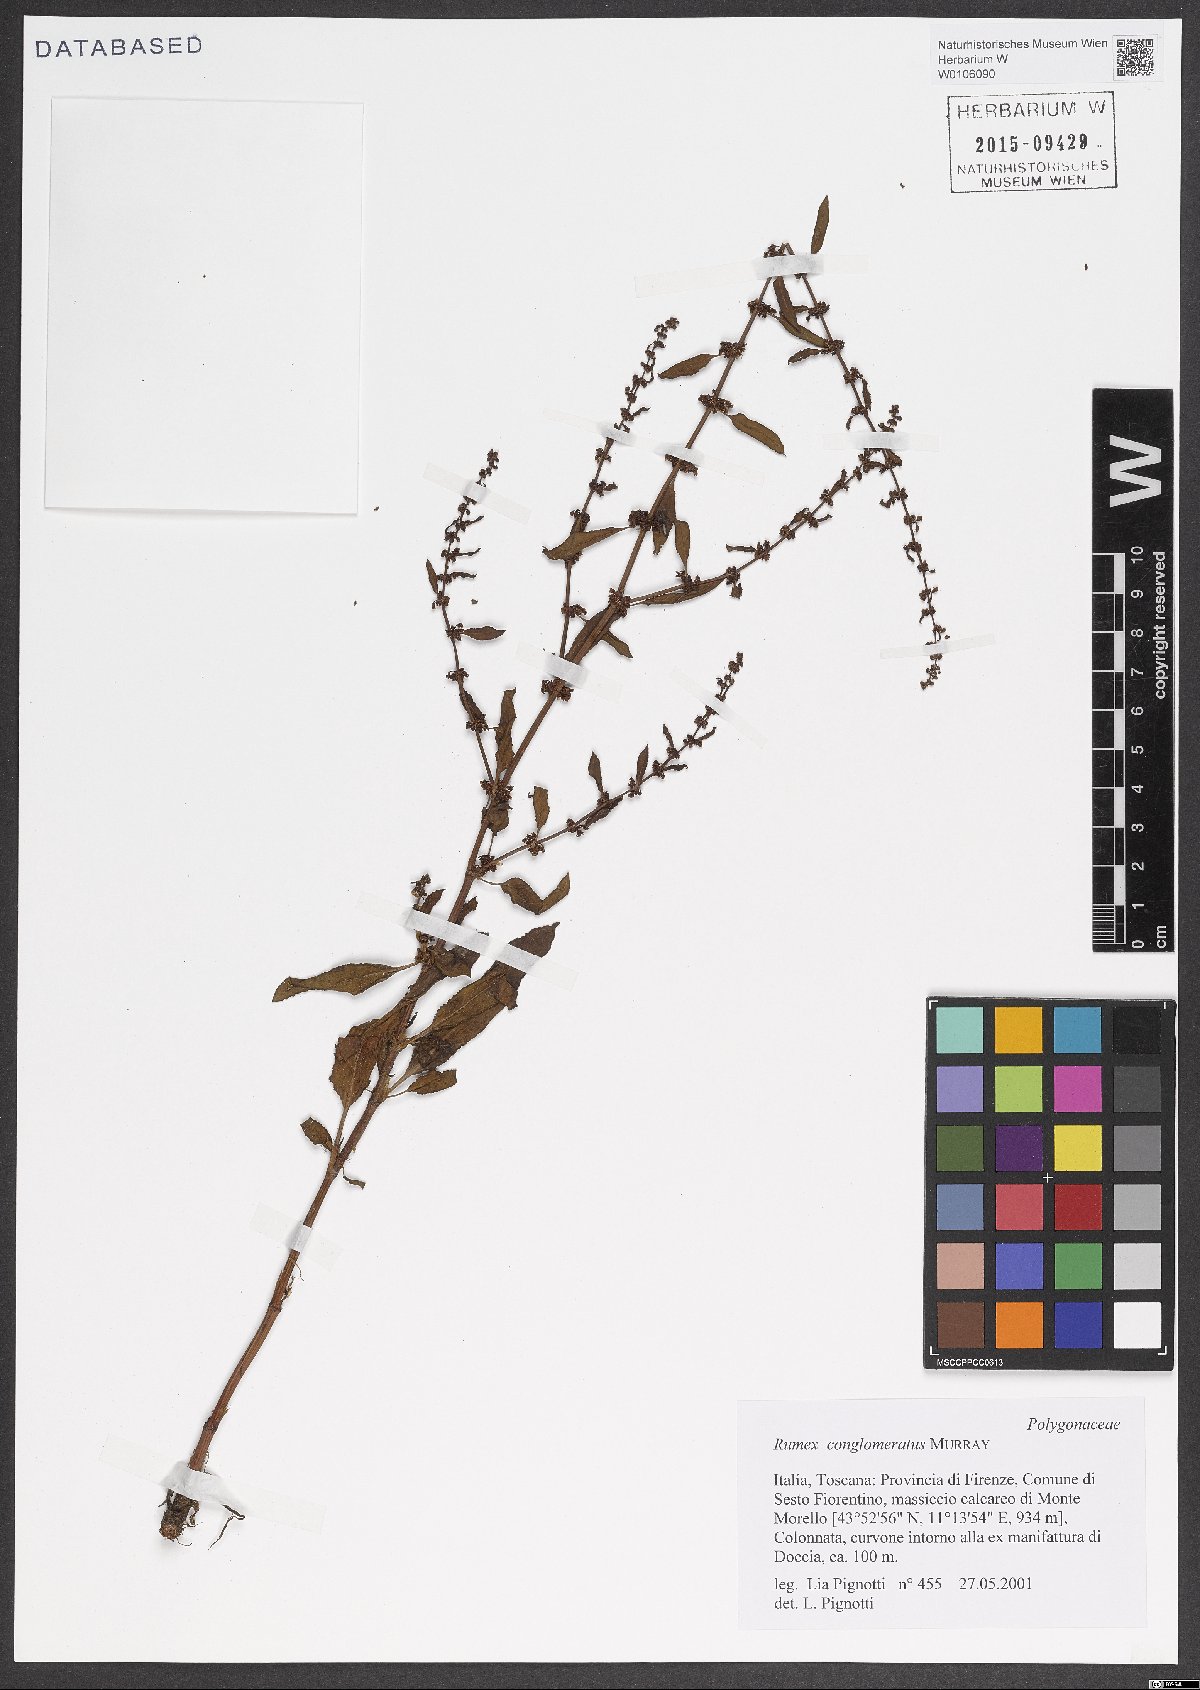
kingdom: Plantae
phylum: Tracheophyta
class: Magnoliopsida
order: Caryophyllales
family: Polygonaceae
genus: Rumex
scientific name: Rumex conglomeratus
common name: Clustered dock
